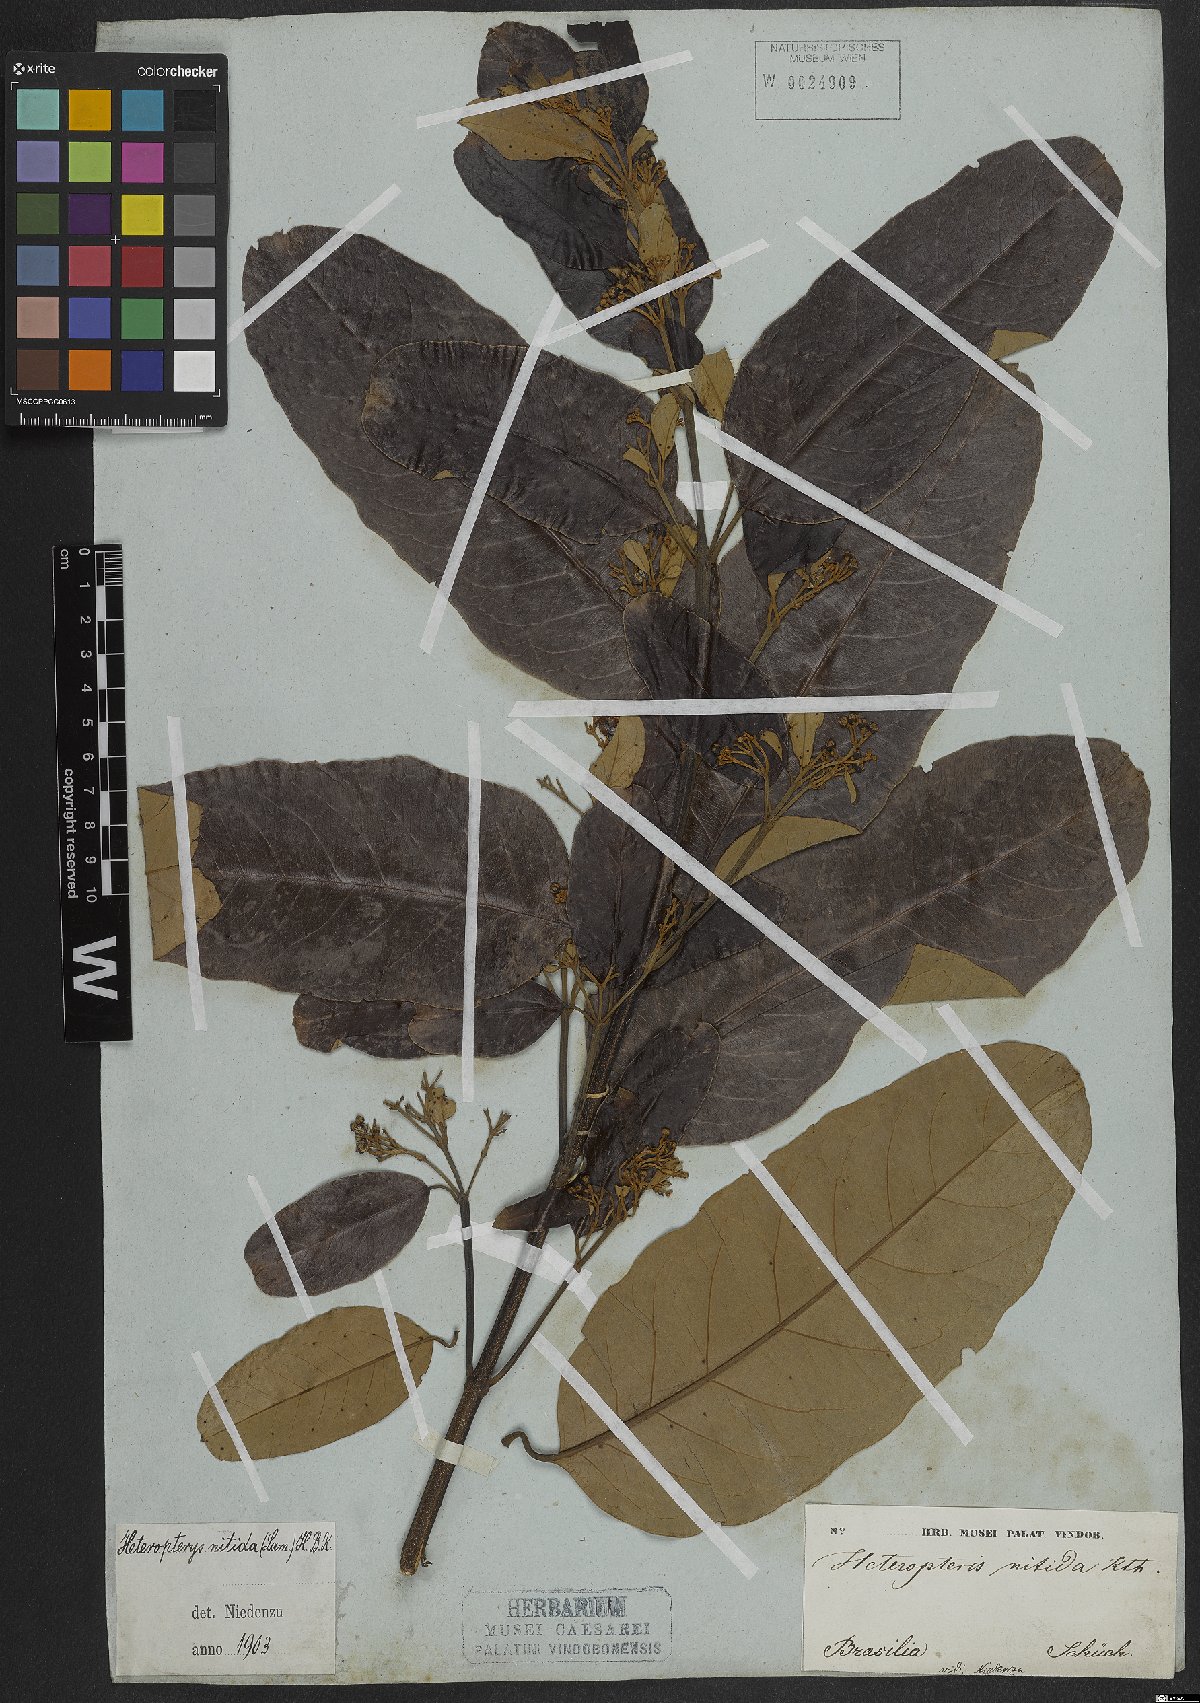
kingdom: Plantae
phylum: Tracheophyta
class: Magnoliopsida
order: Malpighiales
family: Malpighiaceae
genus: Heteropterys
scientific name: Heteropterys nitida
